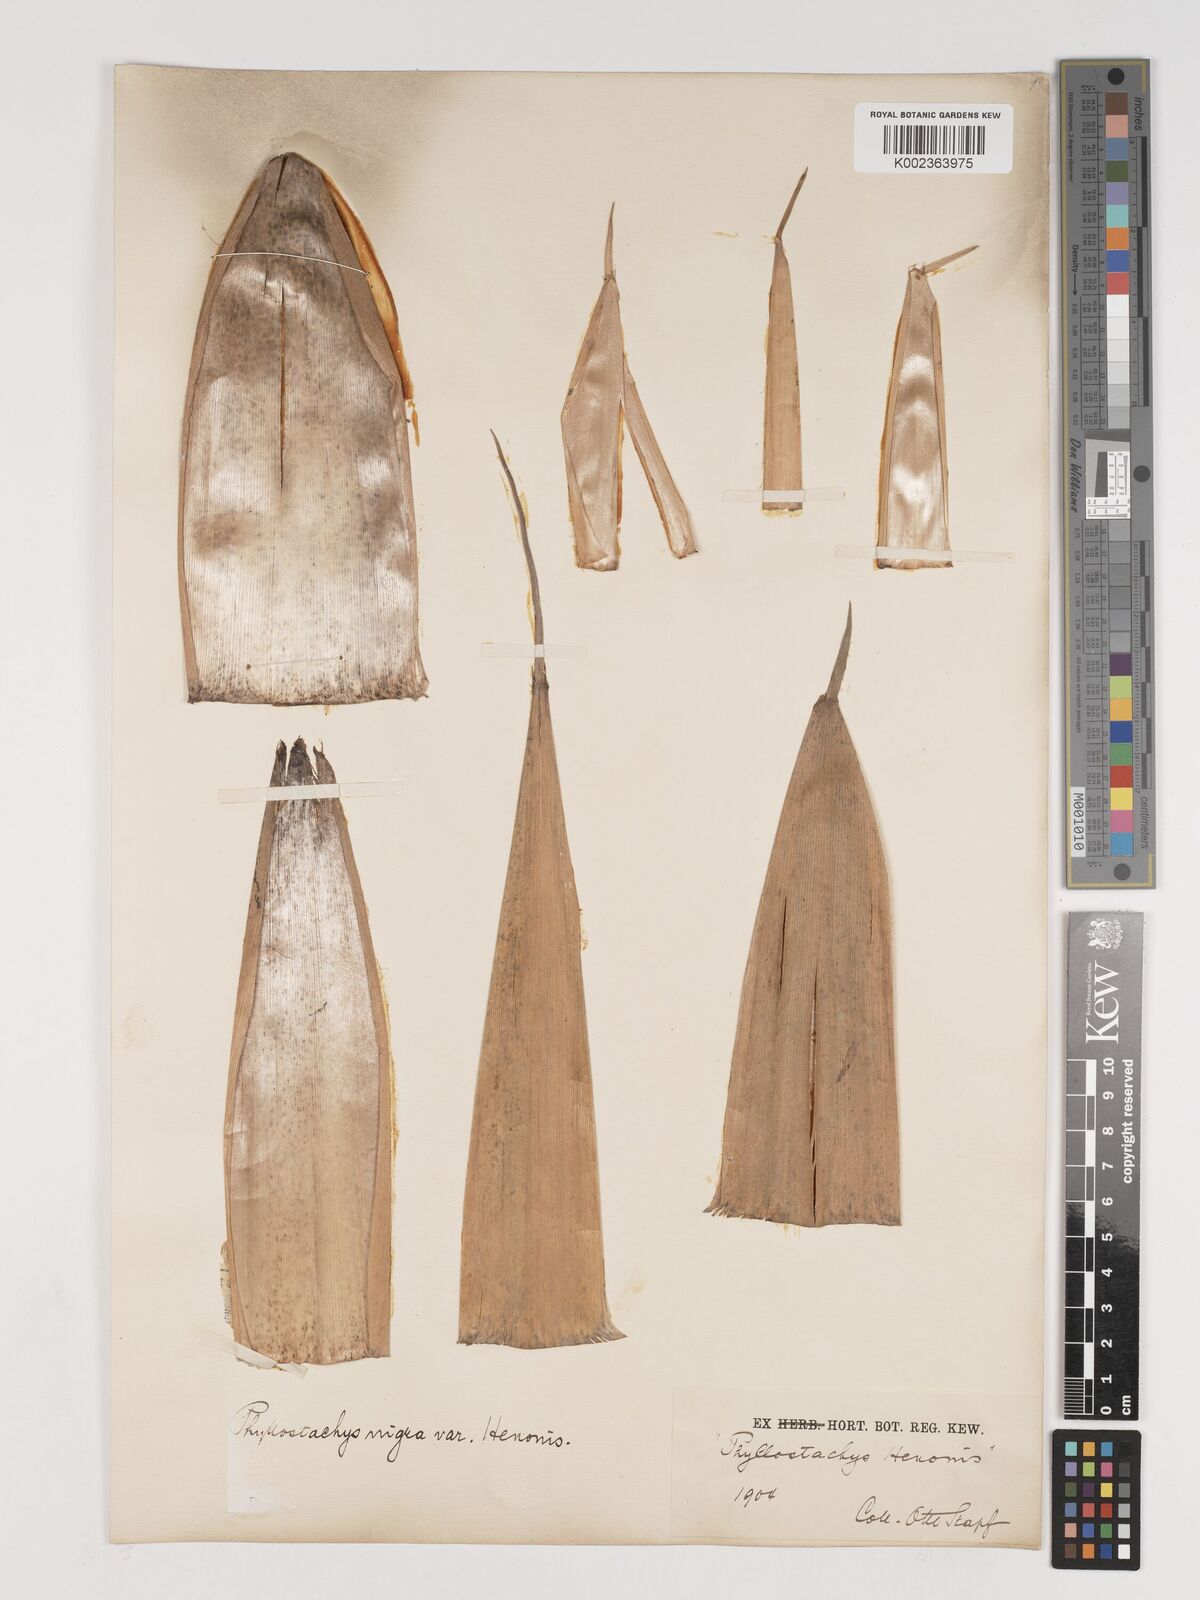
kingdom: Plantae
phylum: Tracheophyta
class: Liliopsida
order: Poales
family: Poaceae
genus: Phyllostachys
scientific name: Phyllostachys nigra
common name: Black bamboo
